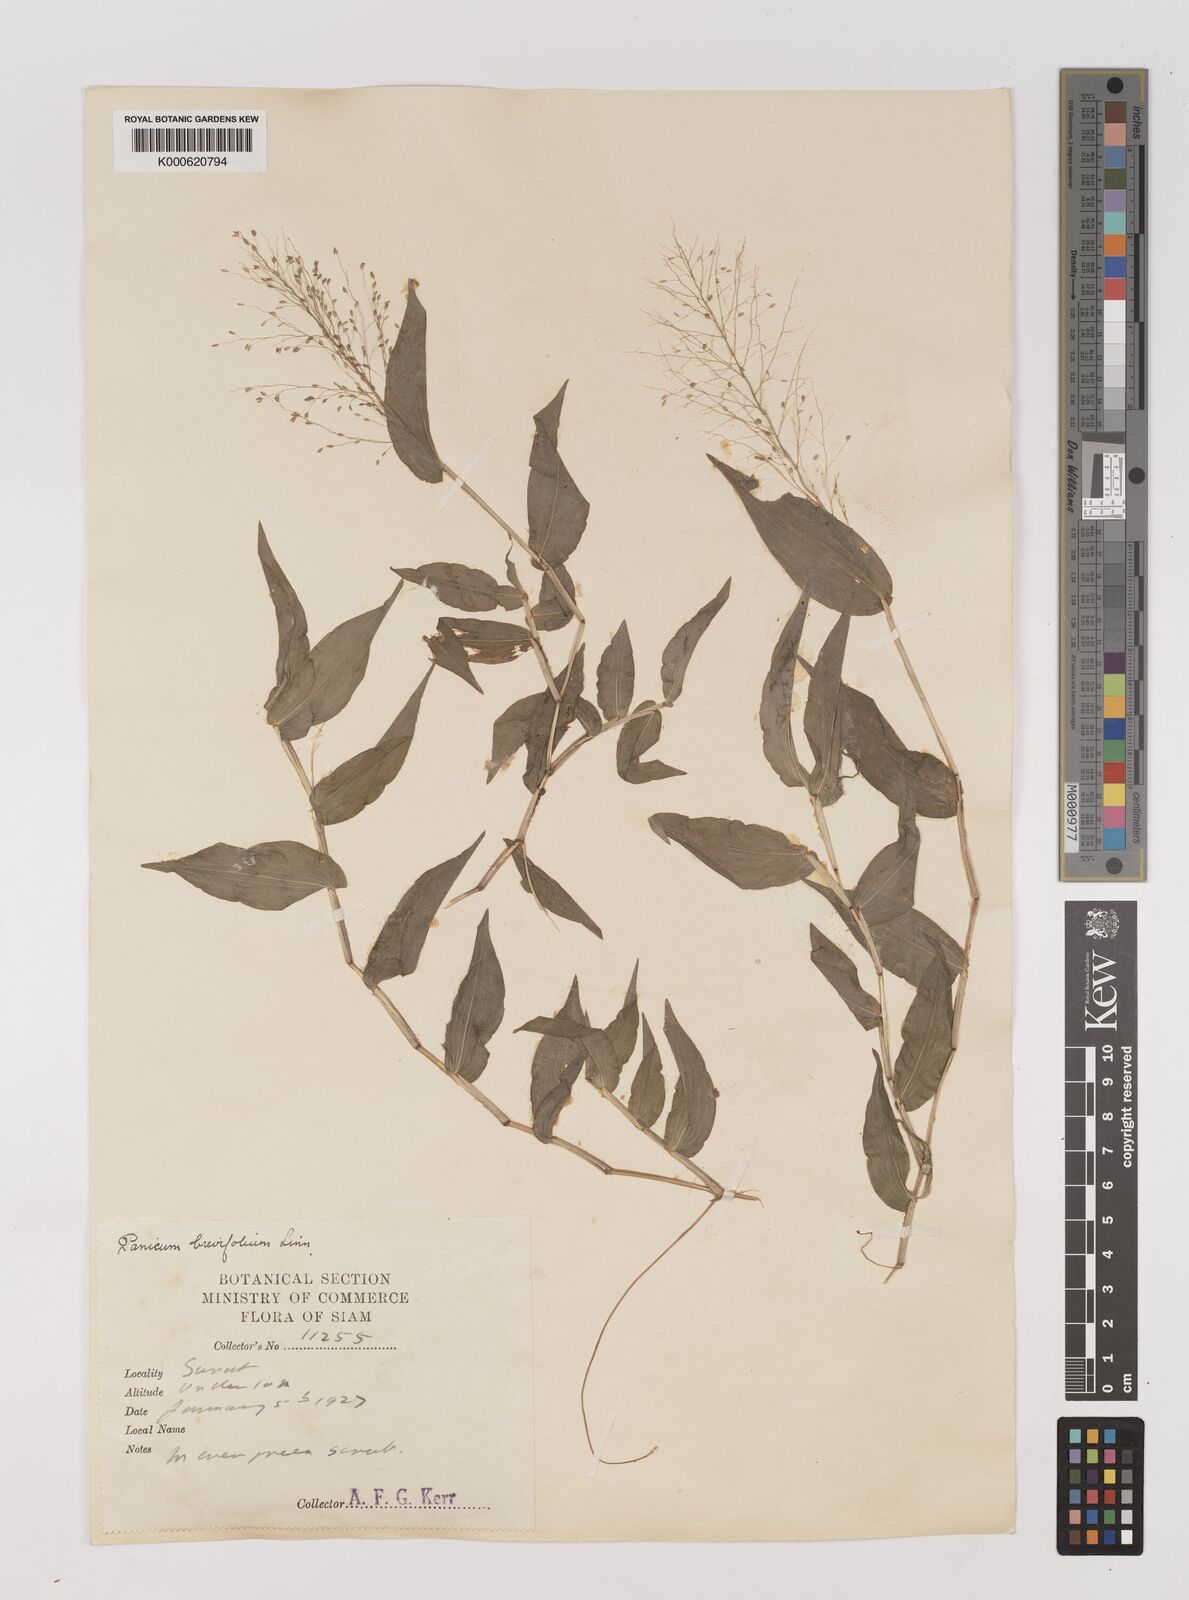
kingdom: Plantae
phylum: Tracheophyta
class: Liliopsida
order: Poales
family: Poaceae
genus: Panicum
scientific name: Panicum brevifolium
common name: Shortleaf panic grass
